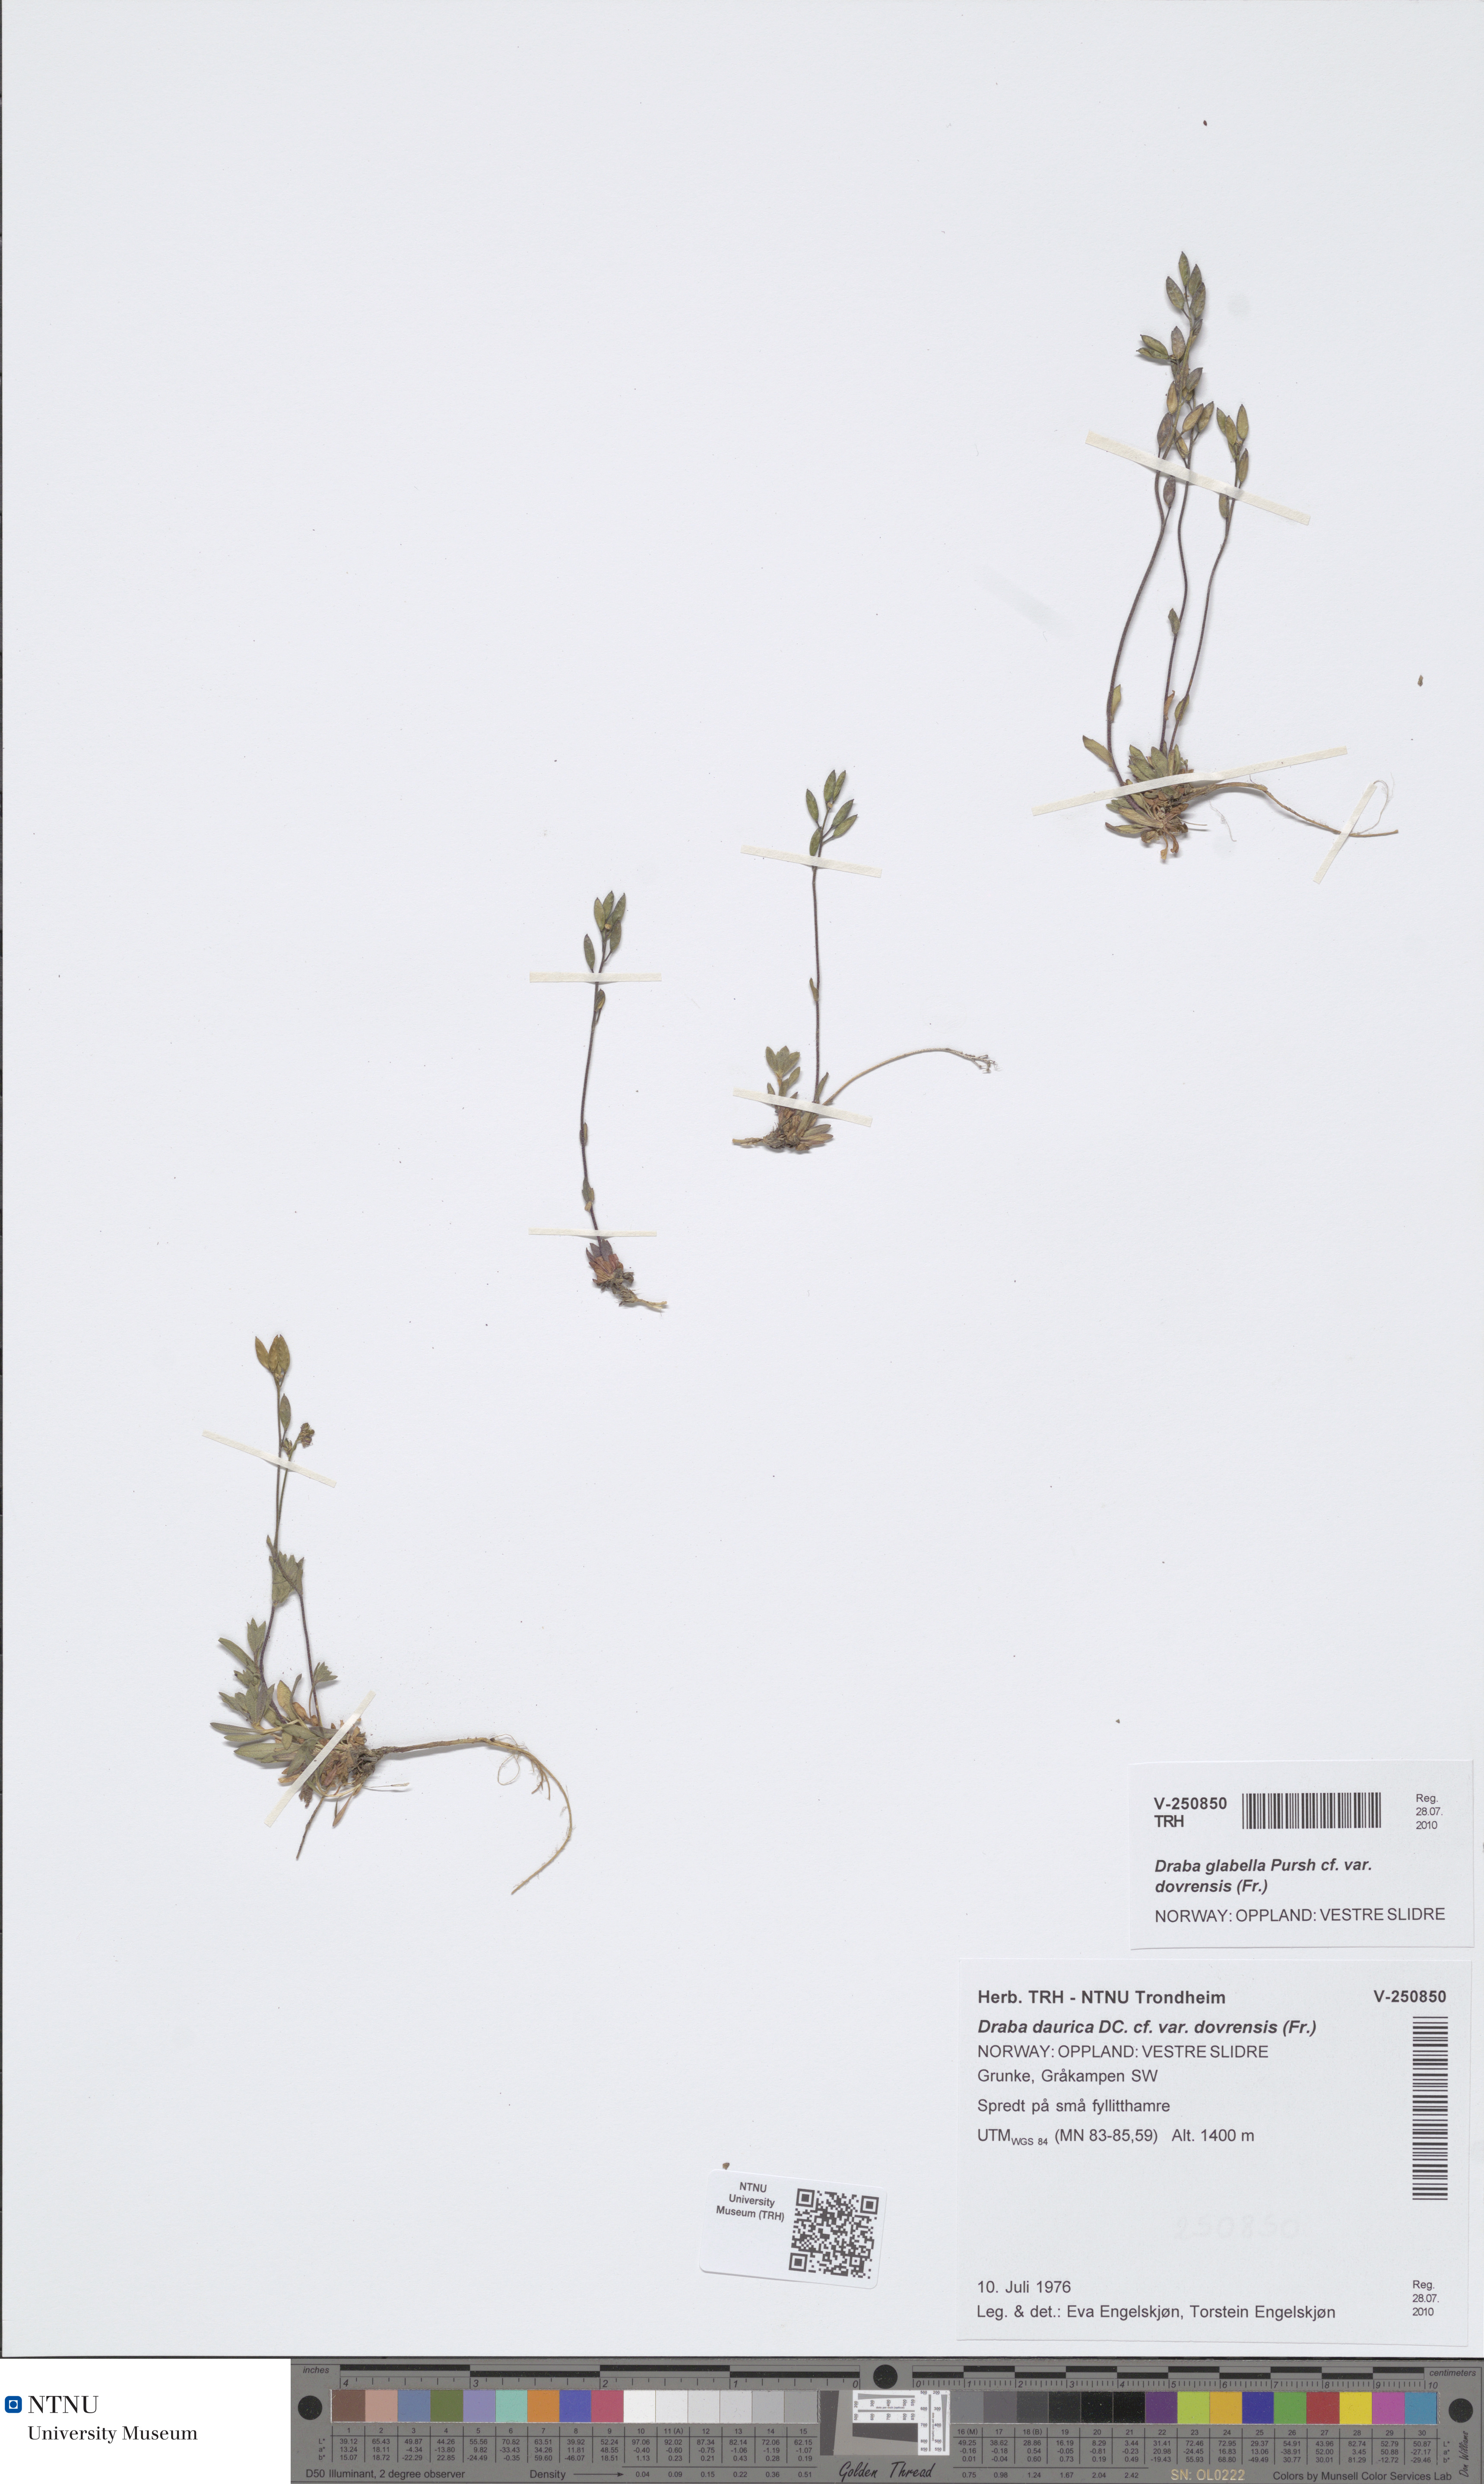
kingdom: Plantae
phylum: Tracheophyta
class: Magnoliopsida
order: Brassicales
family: Brassicaceae
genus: Draba
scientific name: Draba glabella
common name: Glaucous draba
